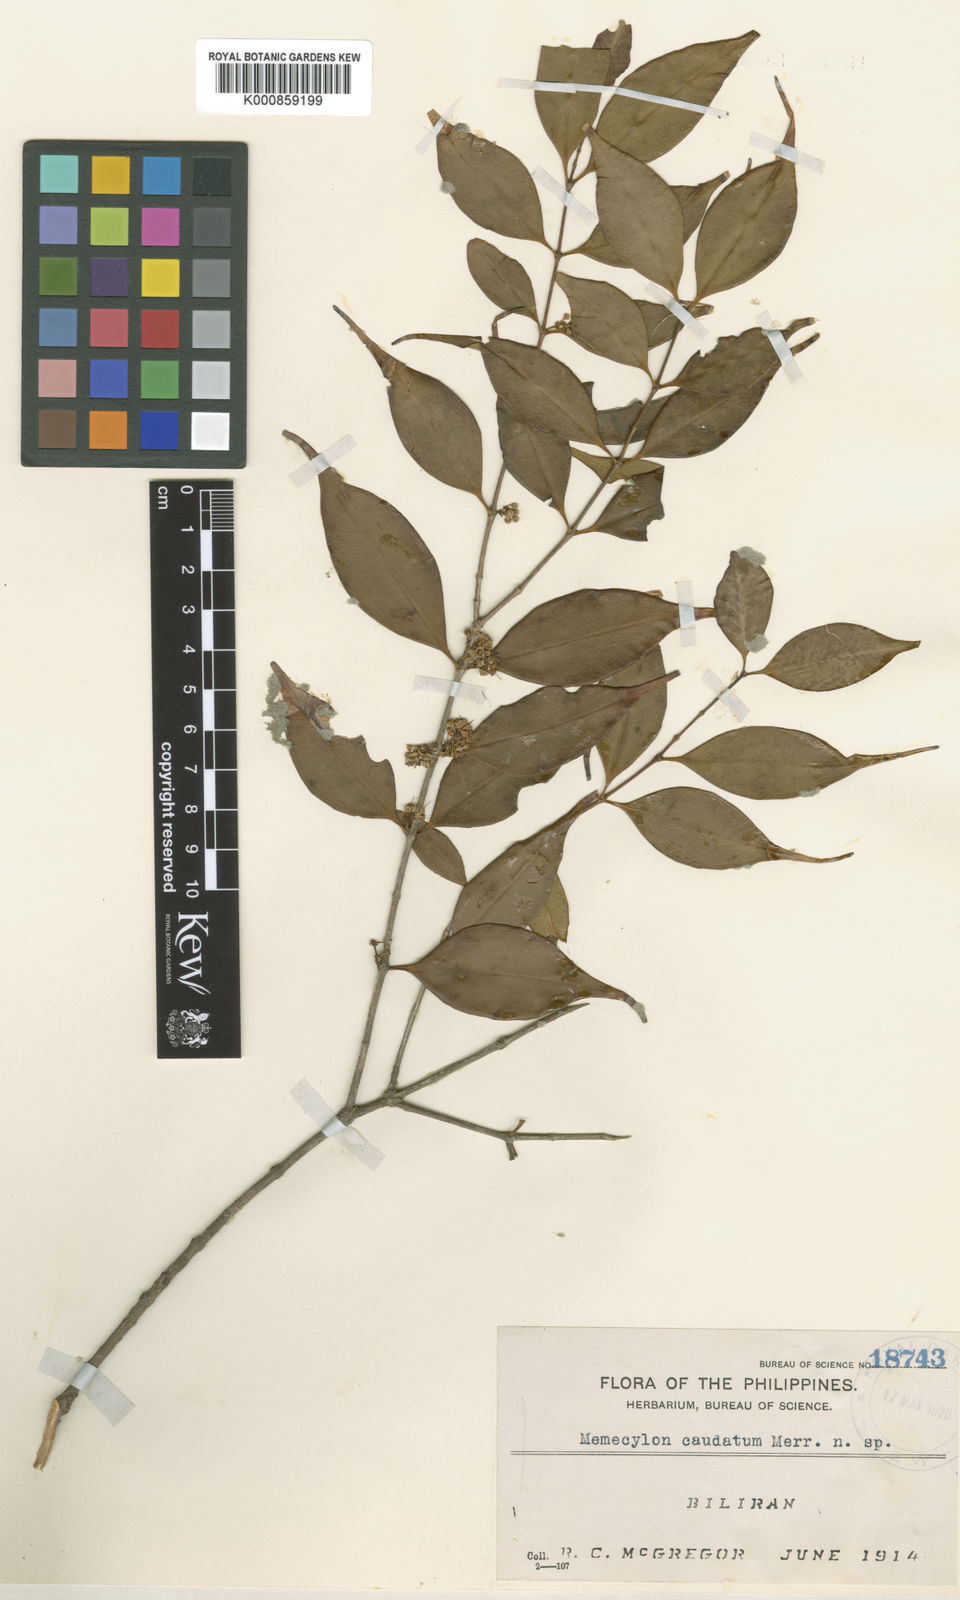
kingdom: Plantae
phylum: Tracheophyta
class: Magnoliopsida
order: Myrtales
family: Melastomataceae
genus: Memecylon
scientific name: Memecylon gitingense
